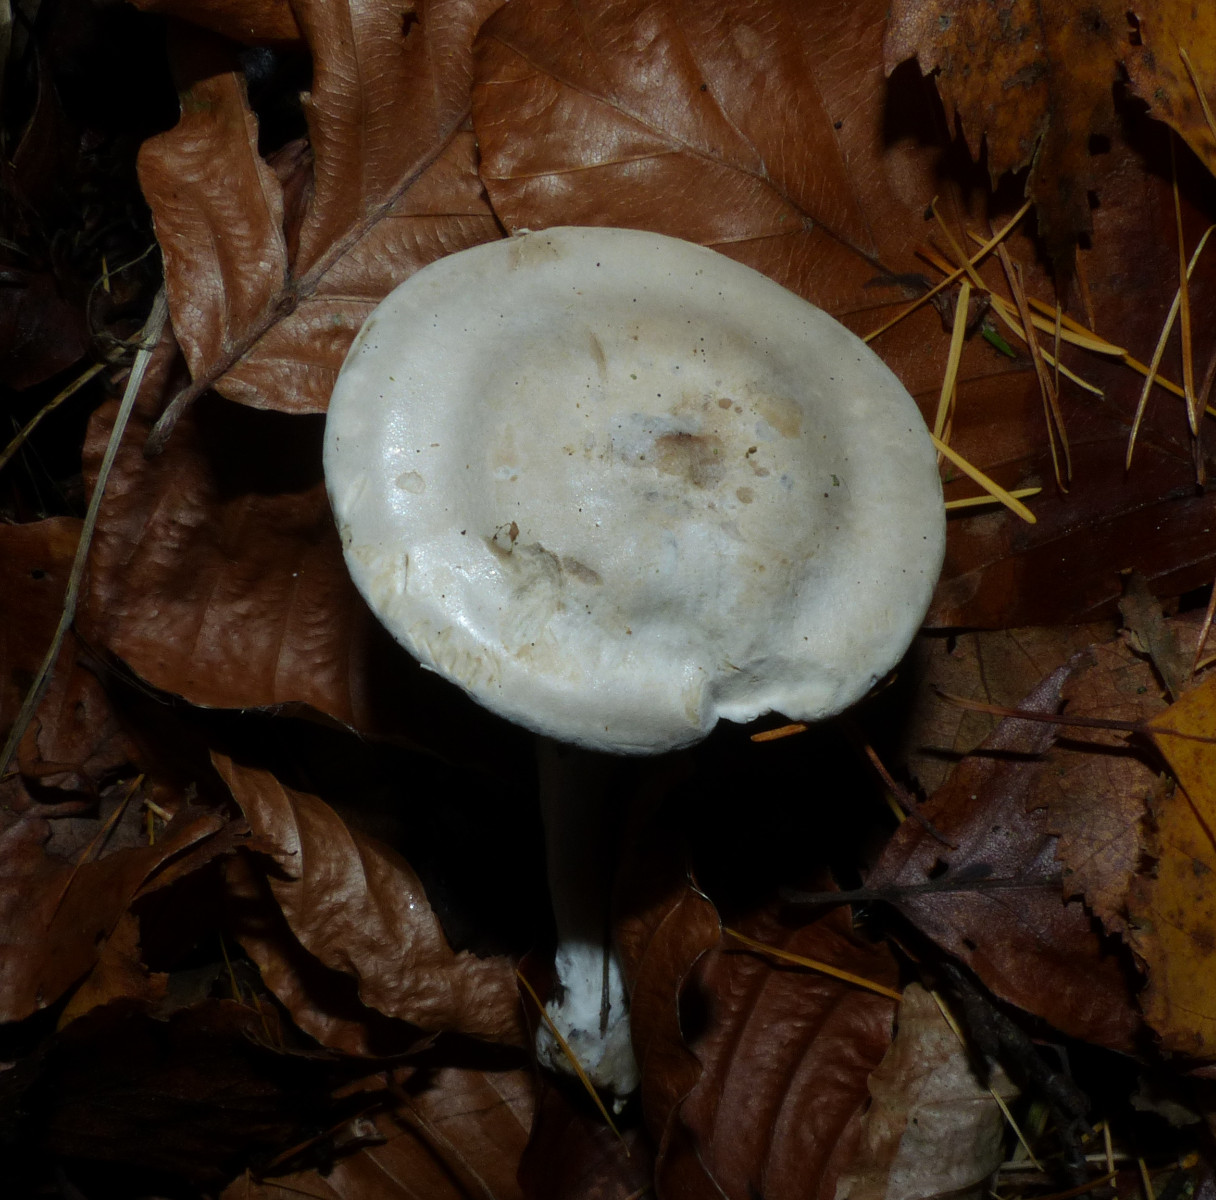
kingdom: Fungi
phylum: Basidiomycota
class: Agaricomycetes
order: Agaricales
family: Entolomataceae
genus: Clitopilus
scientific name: Clitopilus prunulus
